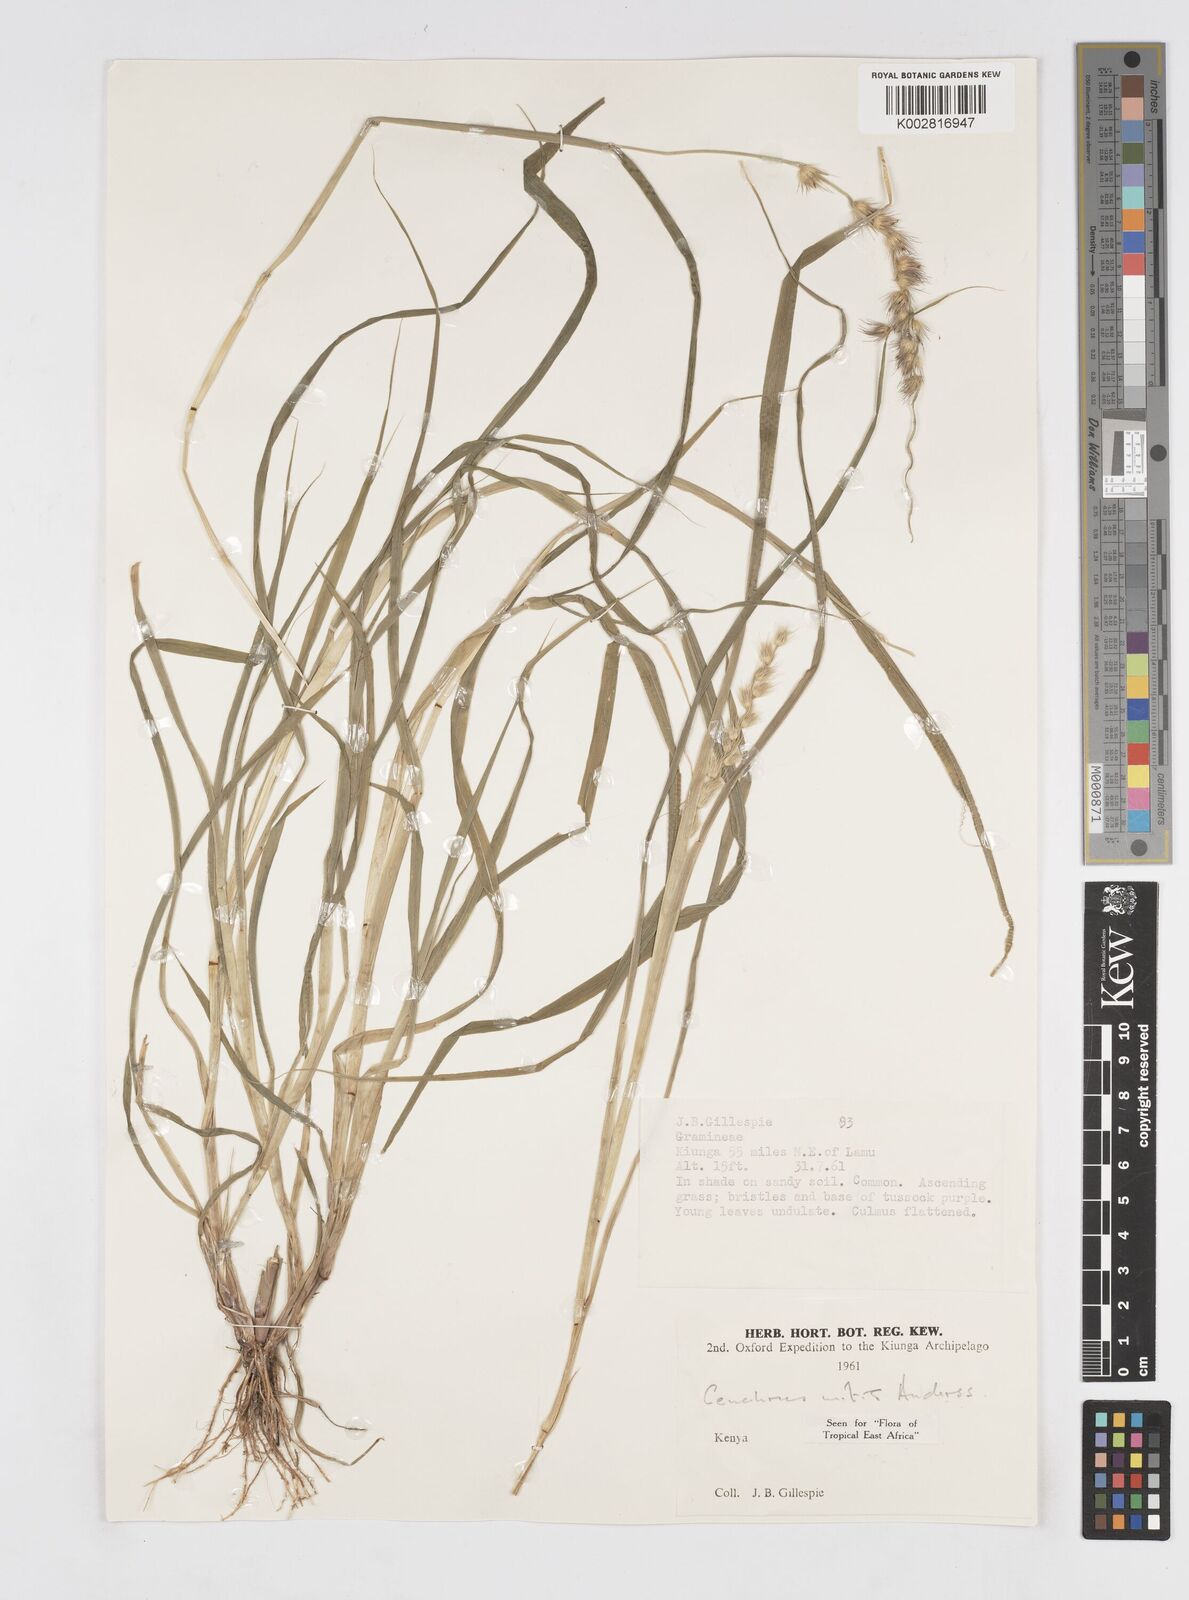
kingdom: Plantae
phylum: Tracheophyta
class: Liliopsida
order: Poales
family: Poaceae
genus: Cenchrus
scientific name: Cenchrus mitis
